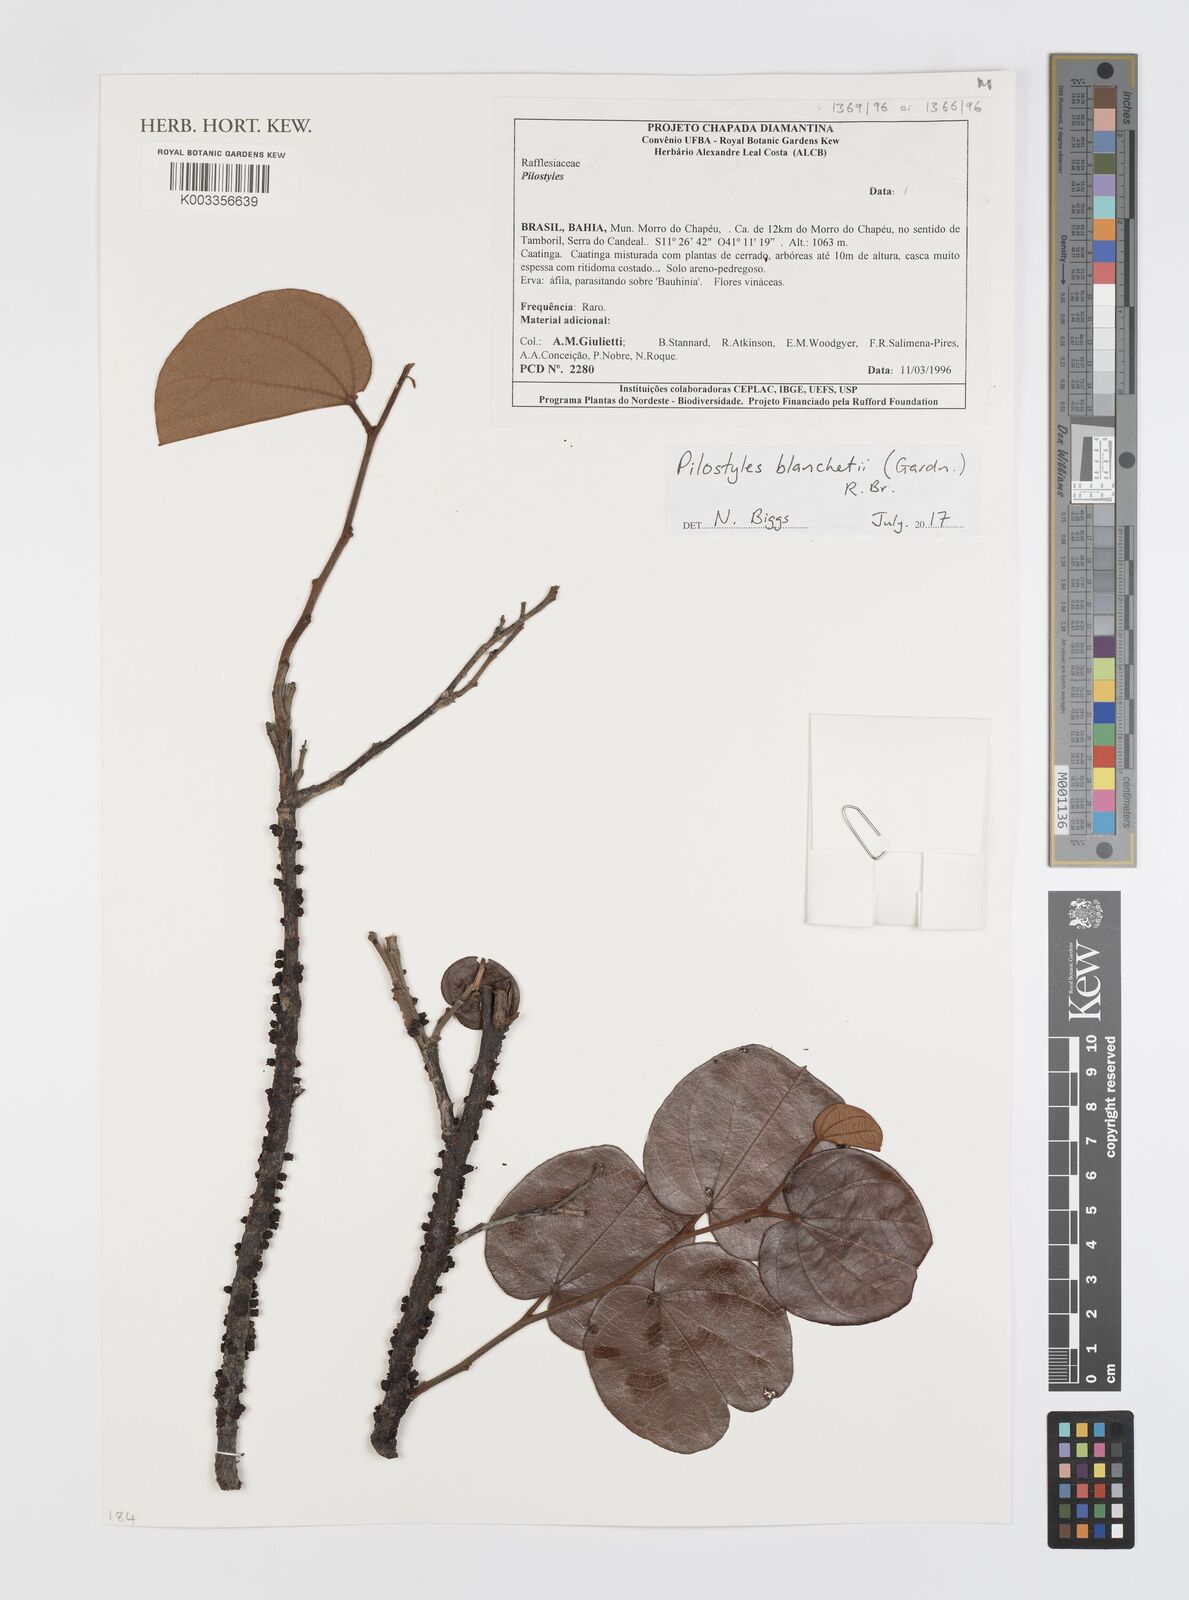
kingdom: Plantae
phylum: Tracheophyta
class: Magnoliopsida
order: Cucurbitales
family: Apodanthaceae
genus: Pilostyles
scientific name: Pilostyles blanchetii
